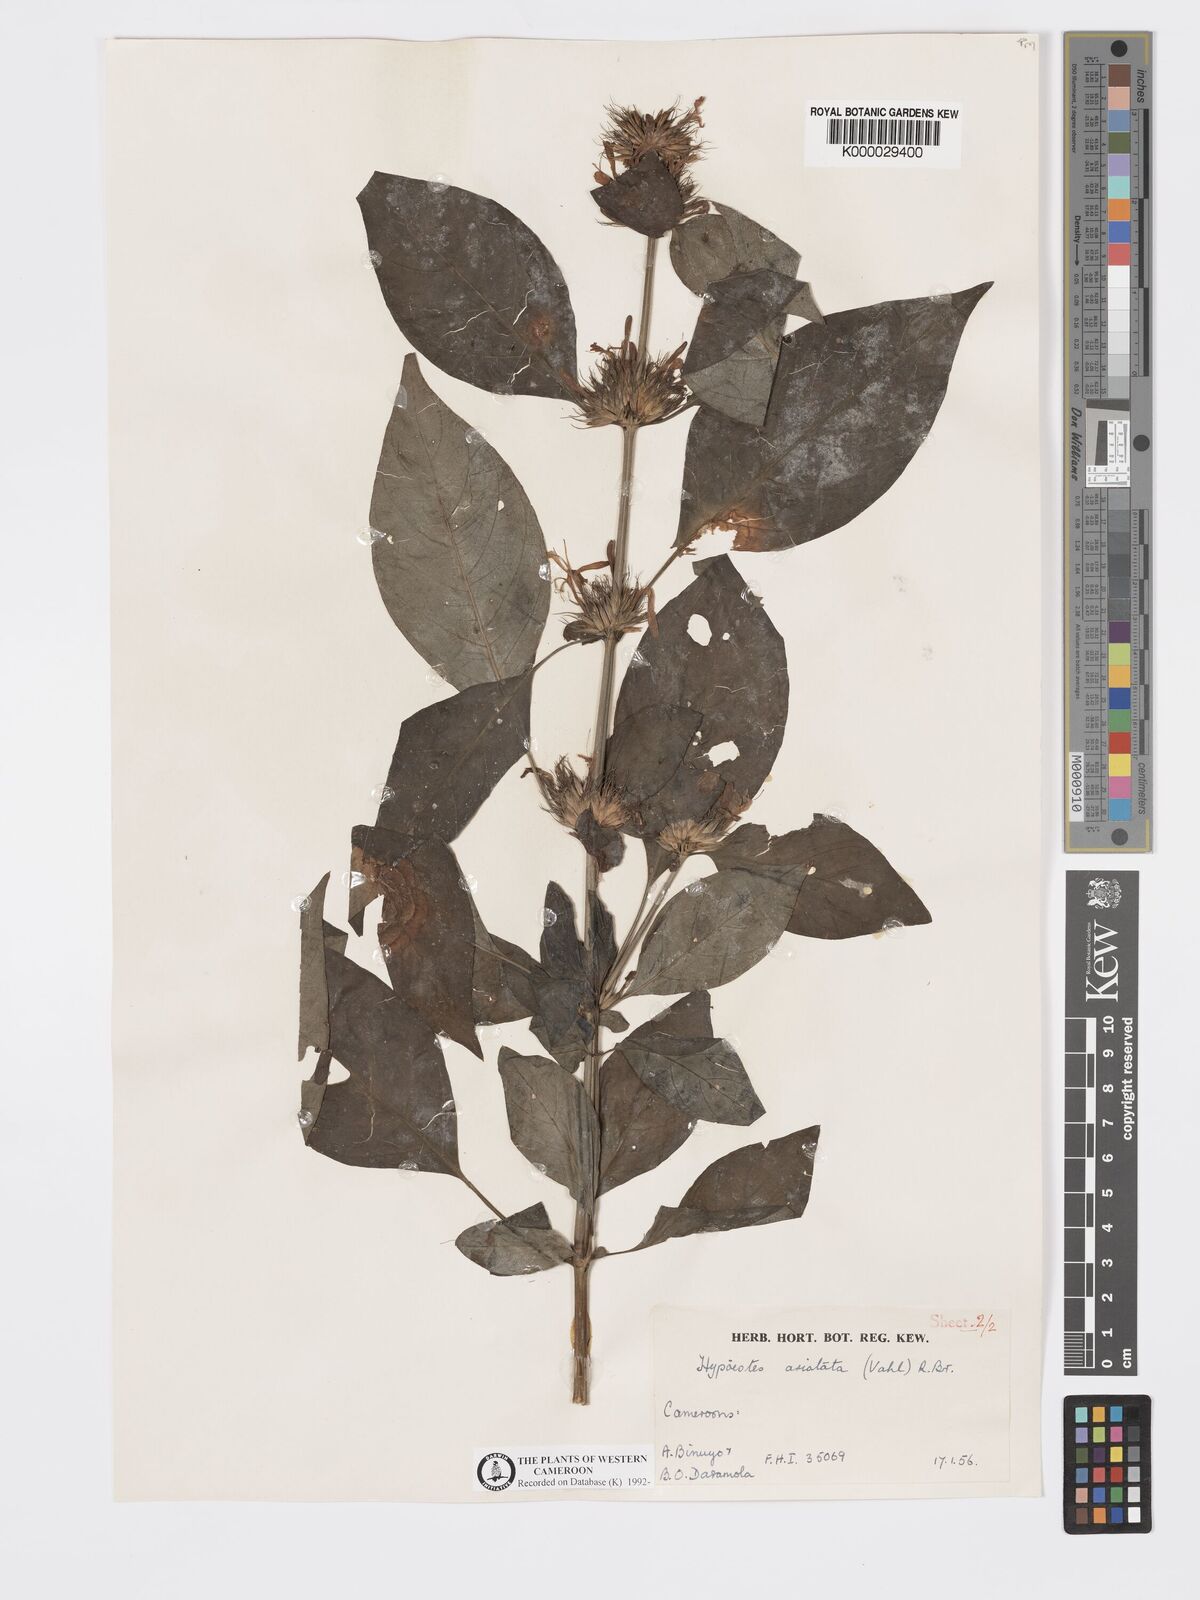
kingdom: Plantae
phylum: Tracheophyta
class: Magnoliopsida
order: Lamiales
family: Acanthaceae
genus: Hypoestes
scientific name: Hypoestes aristata
